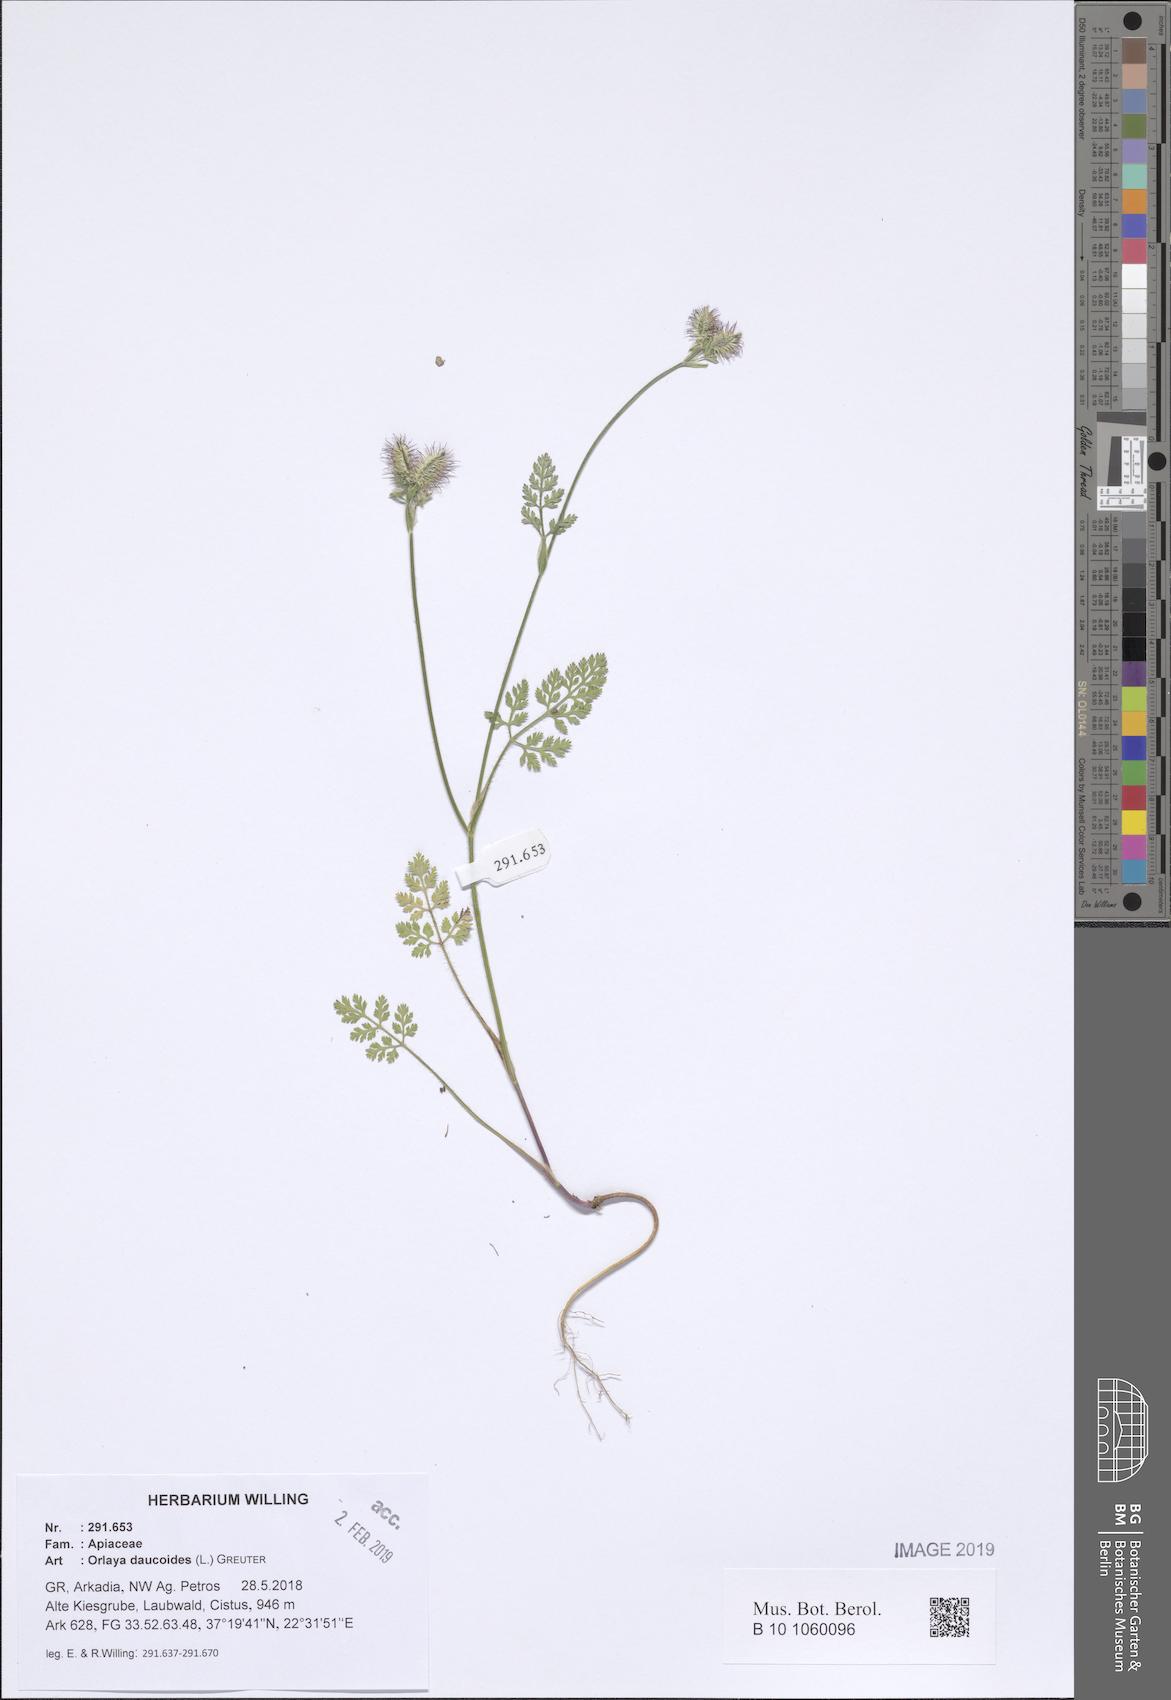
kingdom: Plantae
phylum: Tracheophyta
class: Magnoliopsida
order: Apiales
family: Apiaceae
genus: Orlaya
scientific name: Orlaya daucoides
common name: Flat-fruit orlaya
